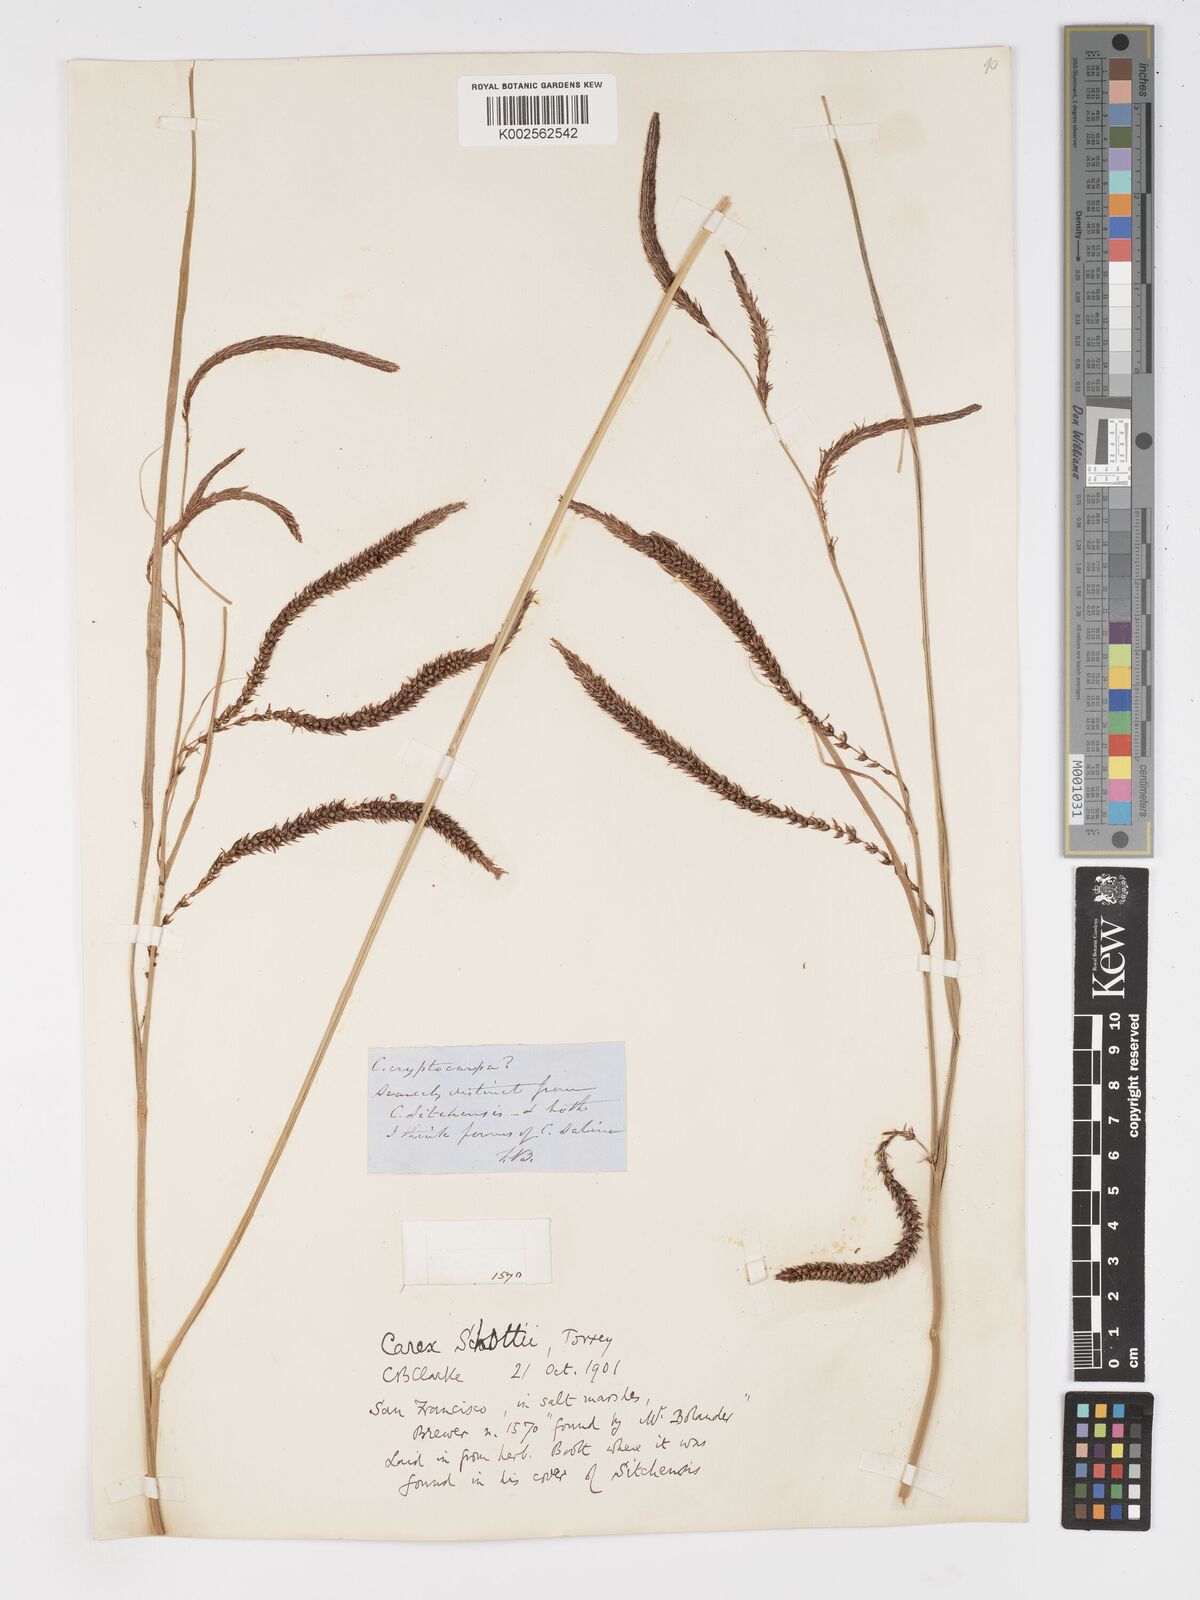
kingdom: Plantae
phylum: Tracheophyta
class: Liliopsida
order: Poales
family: Cyperaceae
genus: Carex
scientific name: Carex schottii
